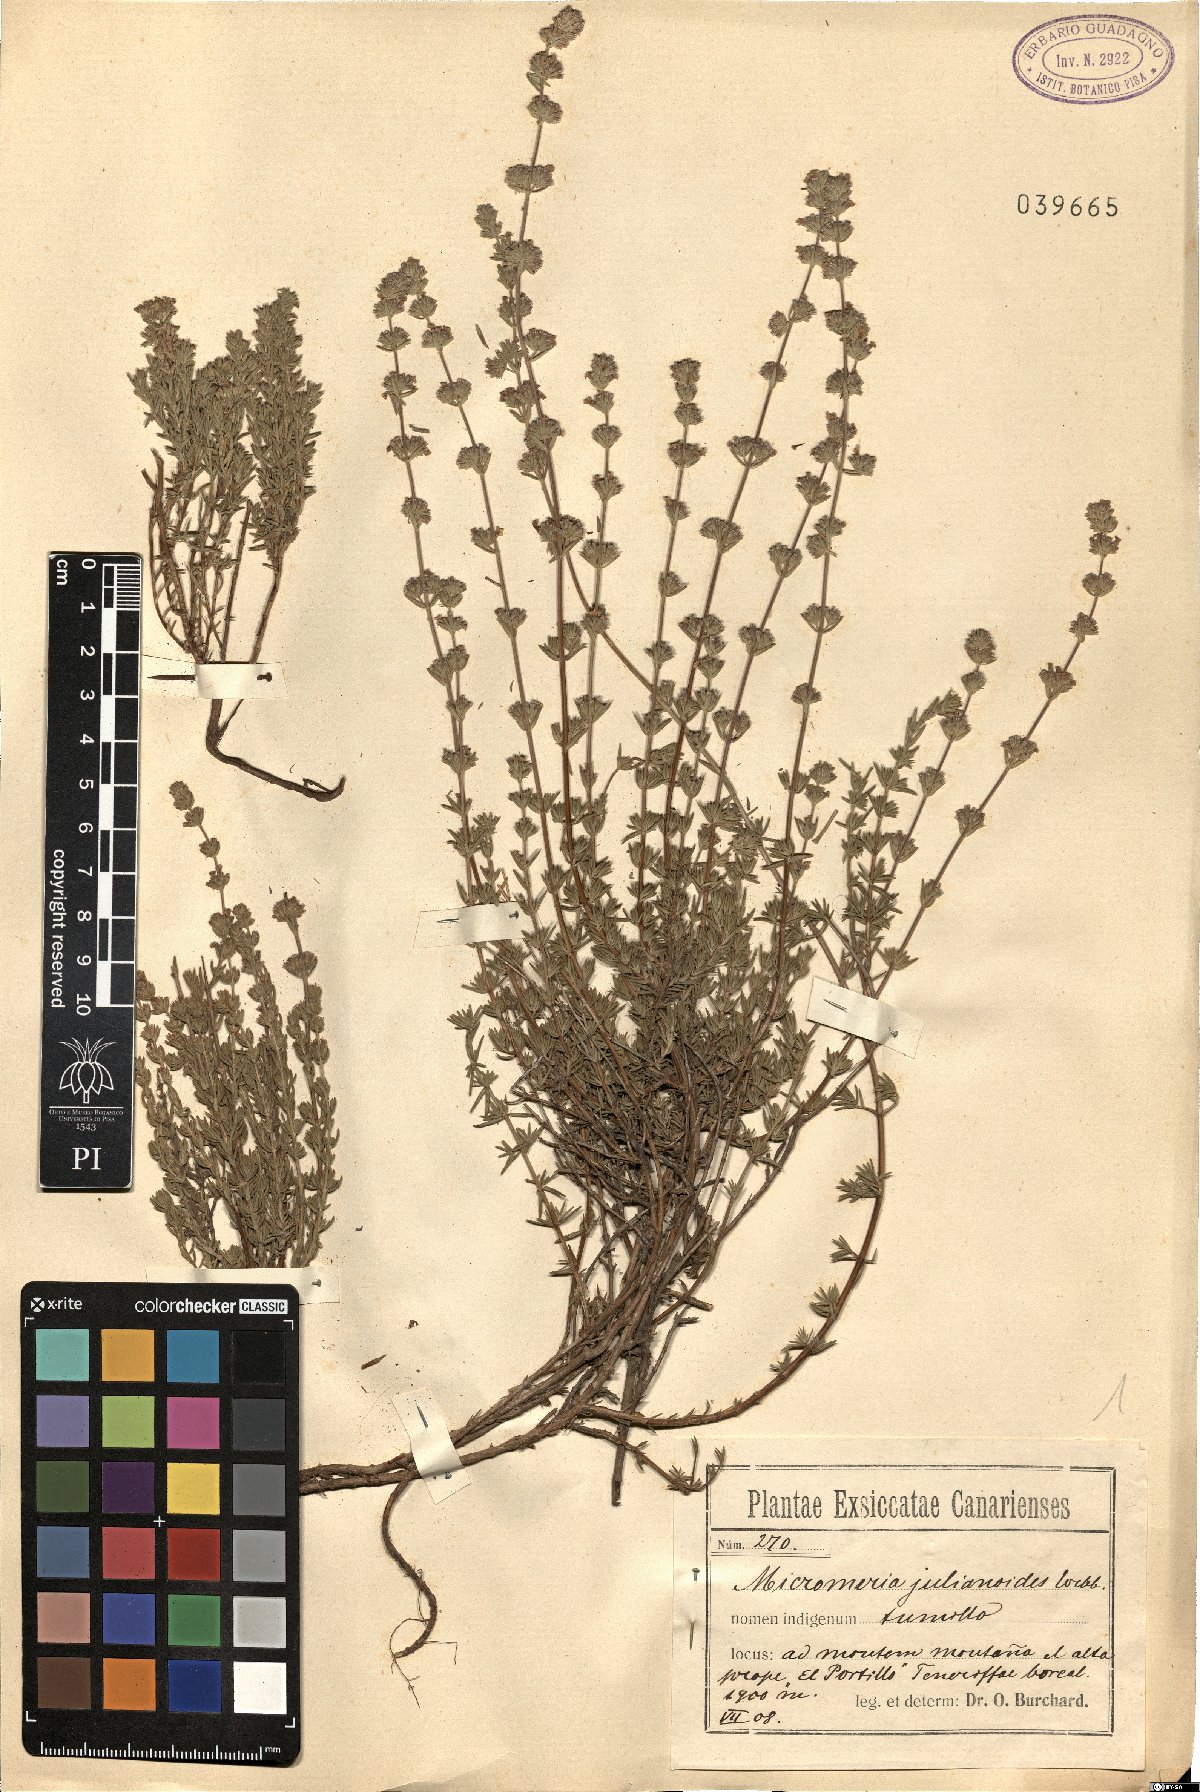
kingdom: Plantae
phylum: Tracheophyta
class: Magnoliopsida
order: Lamiales
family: Lamiaceae
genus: Micromeria
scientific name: Micromeria lachnophylla
